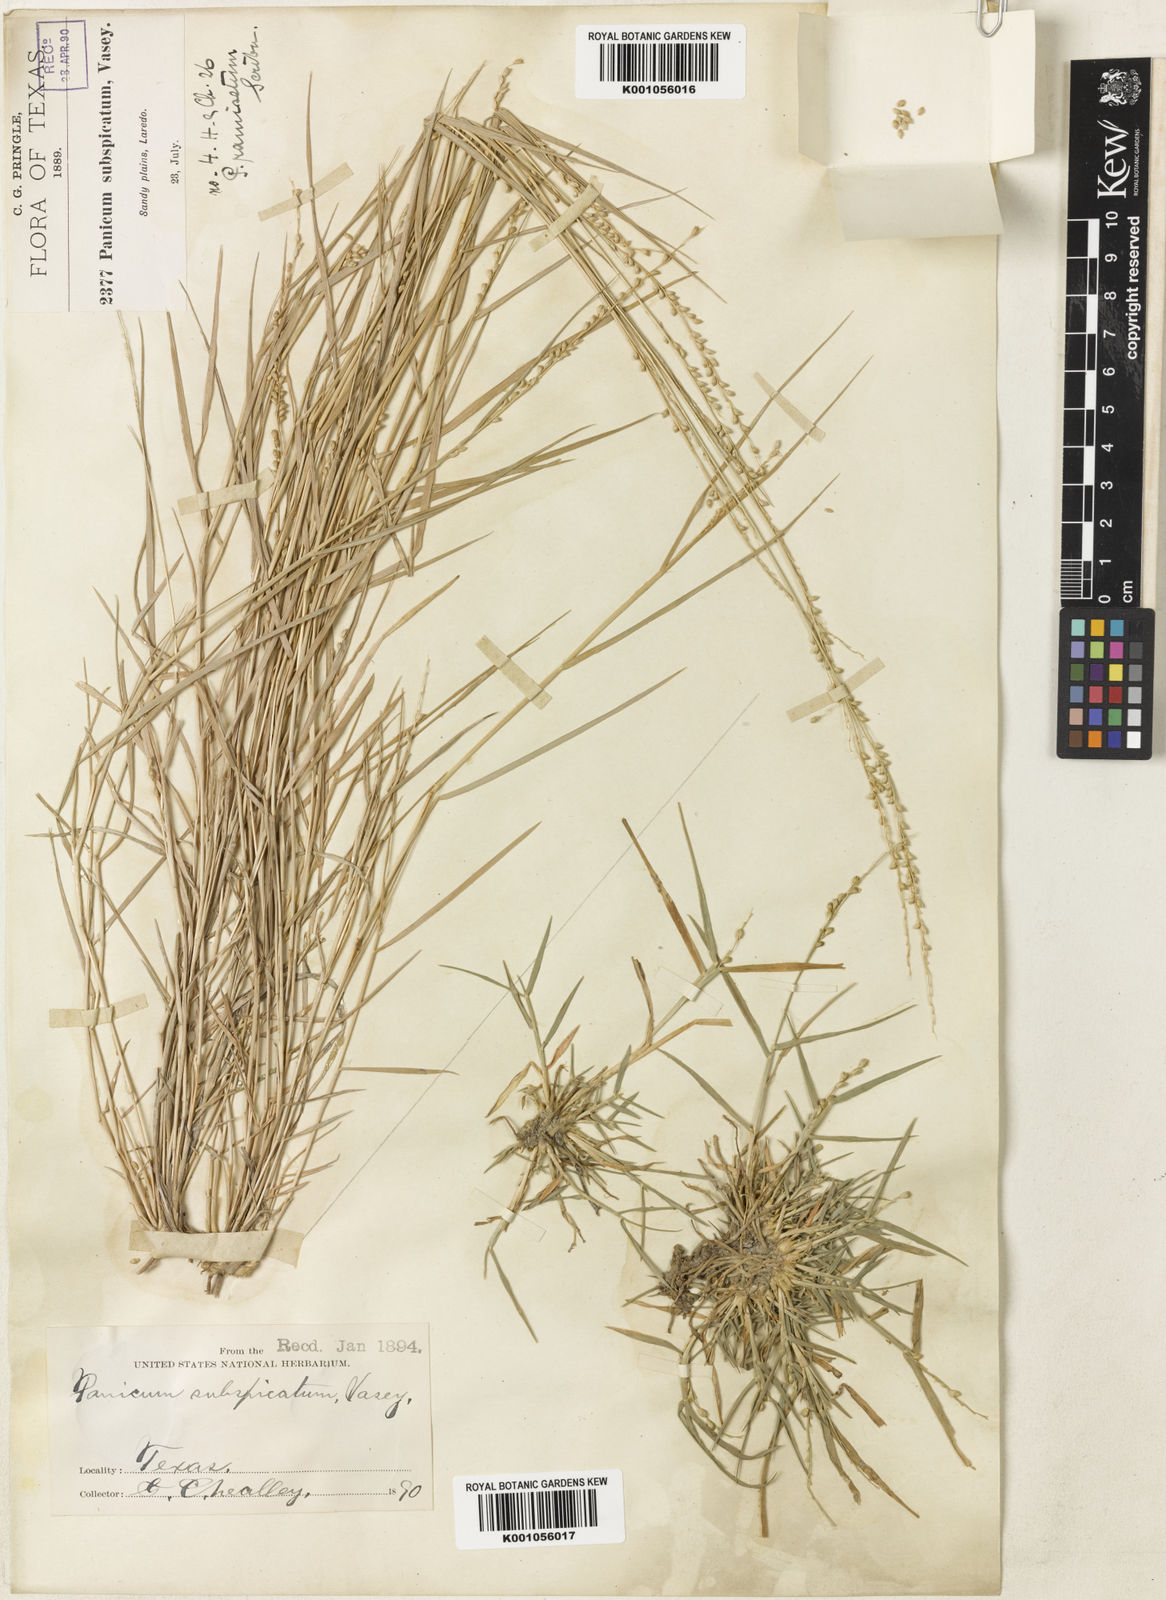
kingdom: Plantae
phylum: Tracheophyta
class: Liliopsida
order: Poales
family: Poaceae
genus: Setaria
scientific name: Setaria
